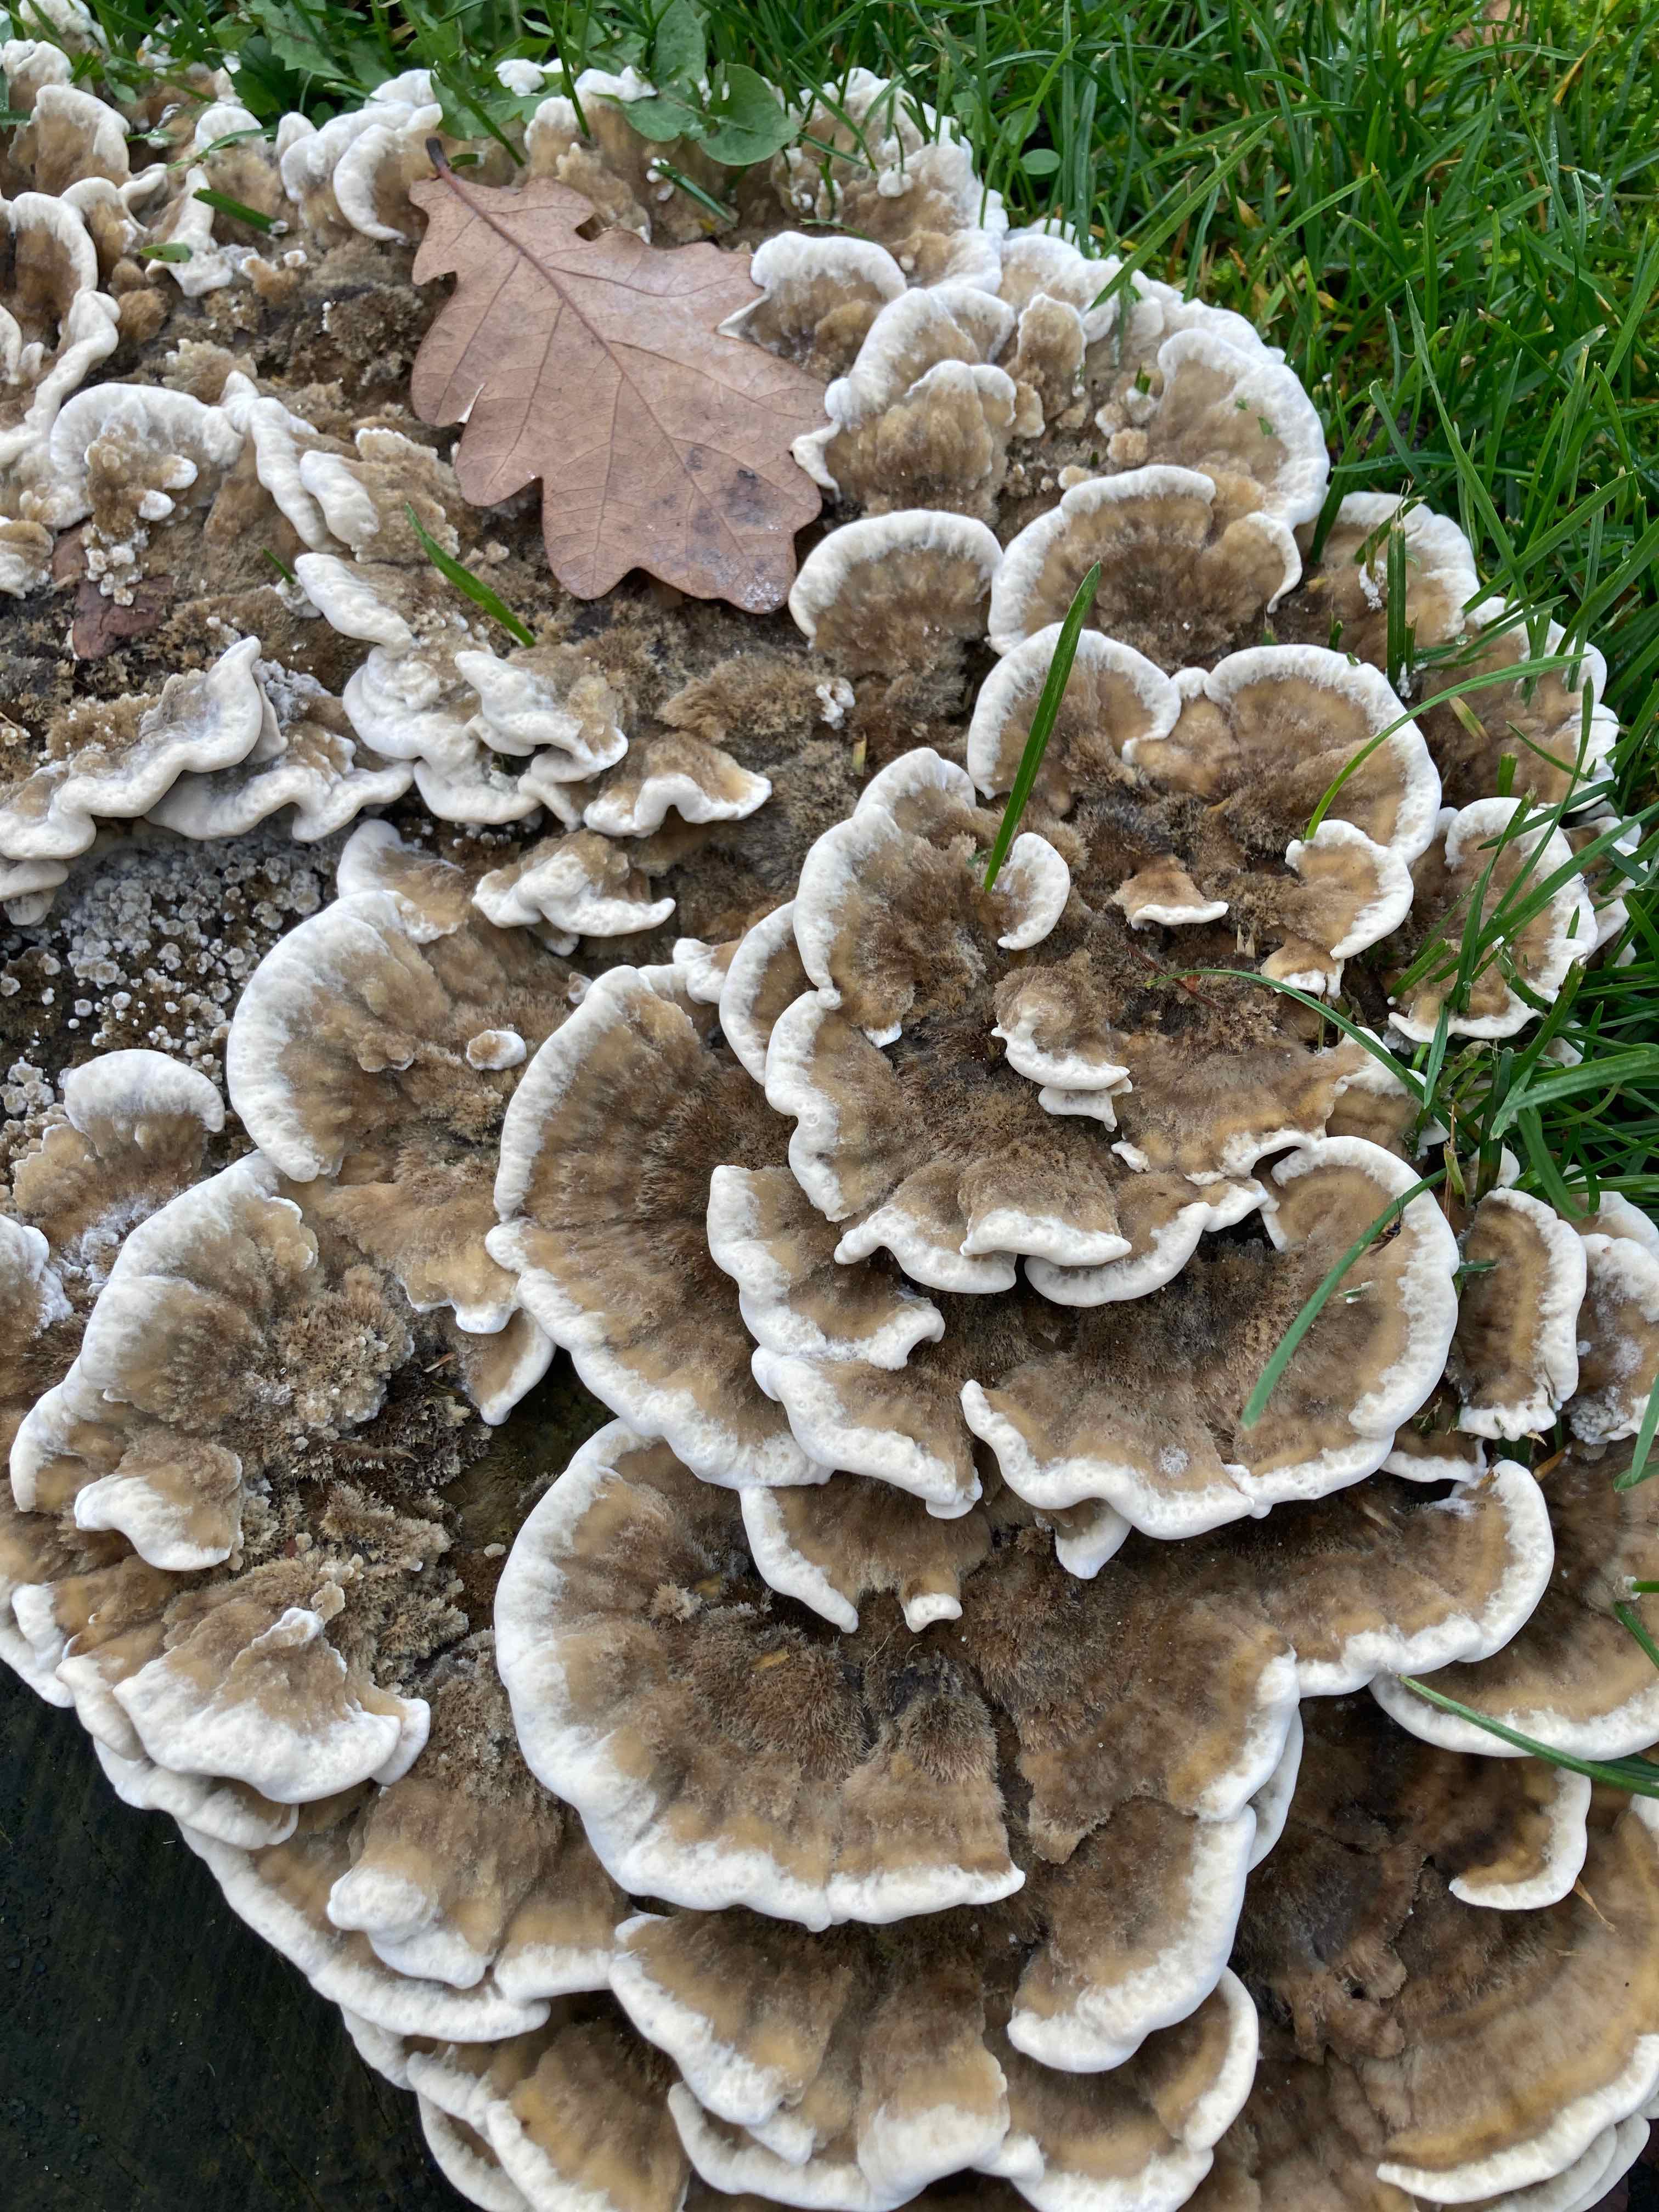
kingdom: Fungi
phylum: Basidiomycota
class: Agaricomycetes
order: Polyporales
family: Phanerochaetaceae
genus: Bjerkandera
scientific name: Bjerkandera adusta
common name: sveden sodporesvamp
